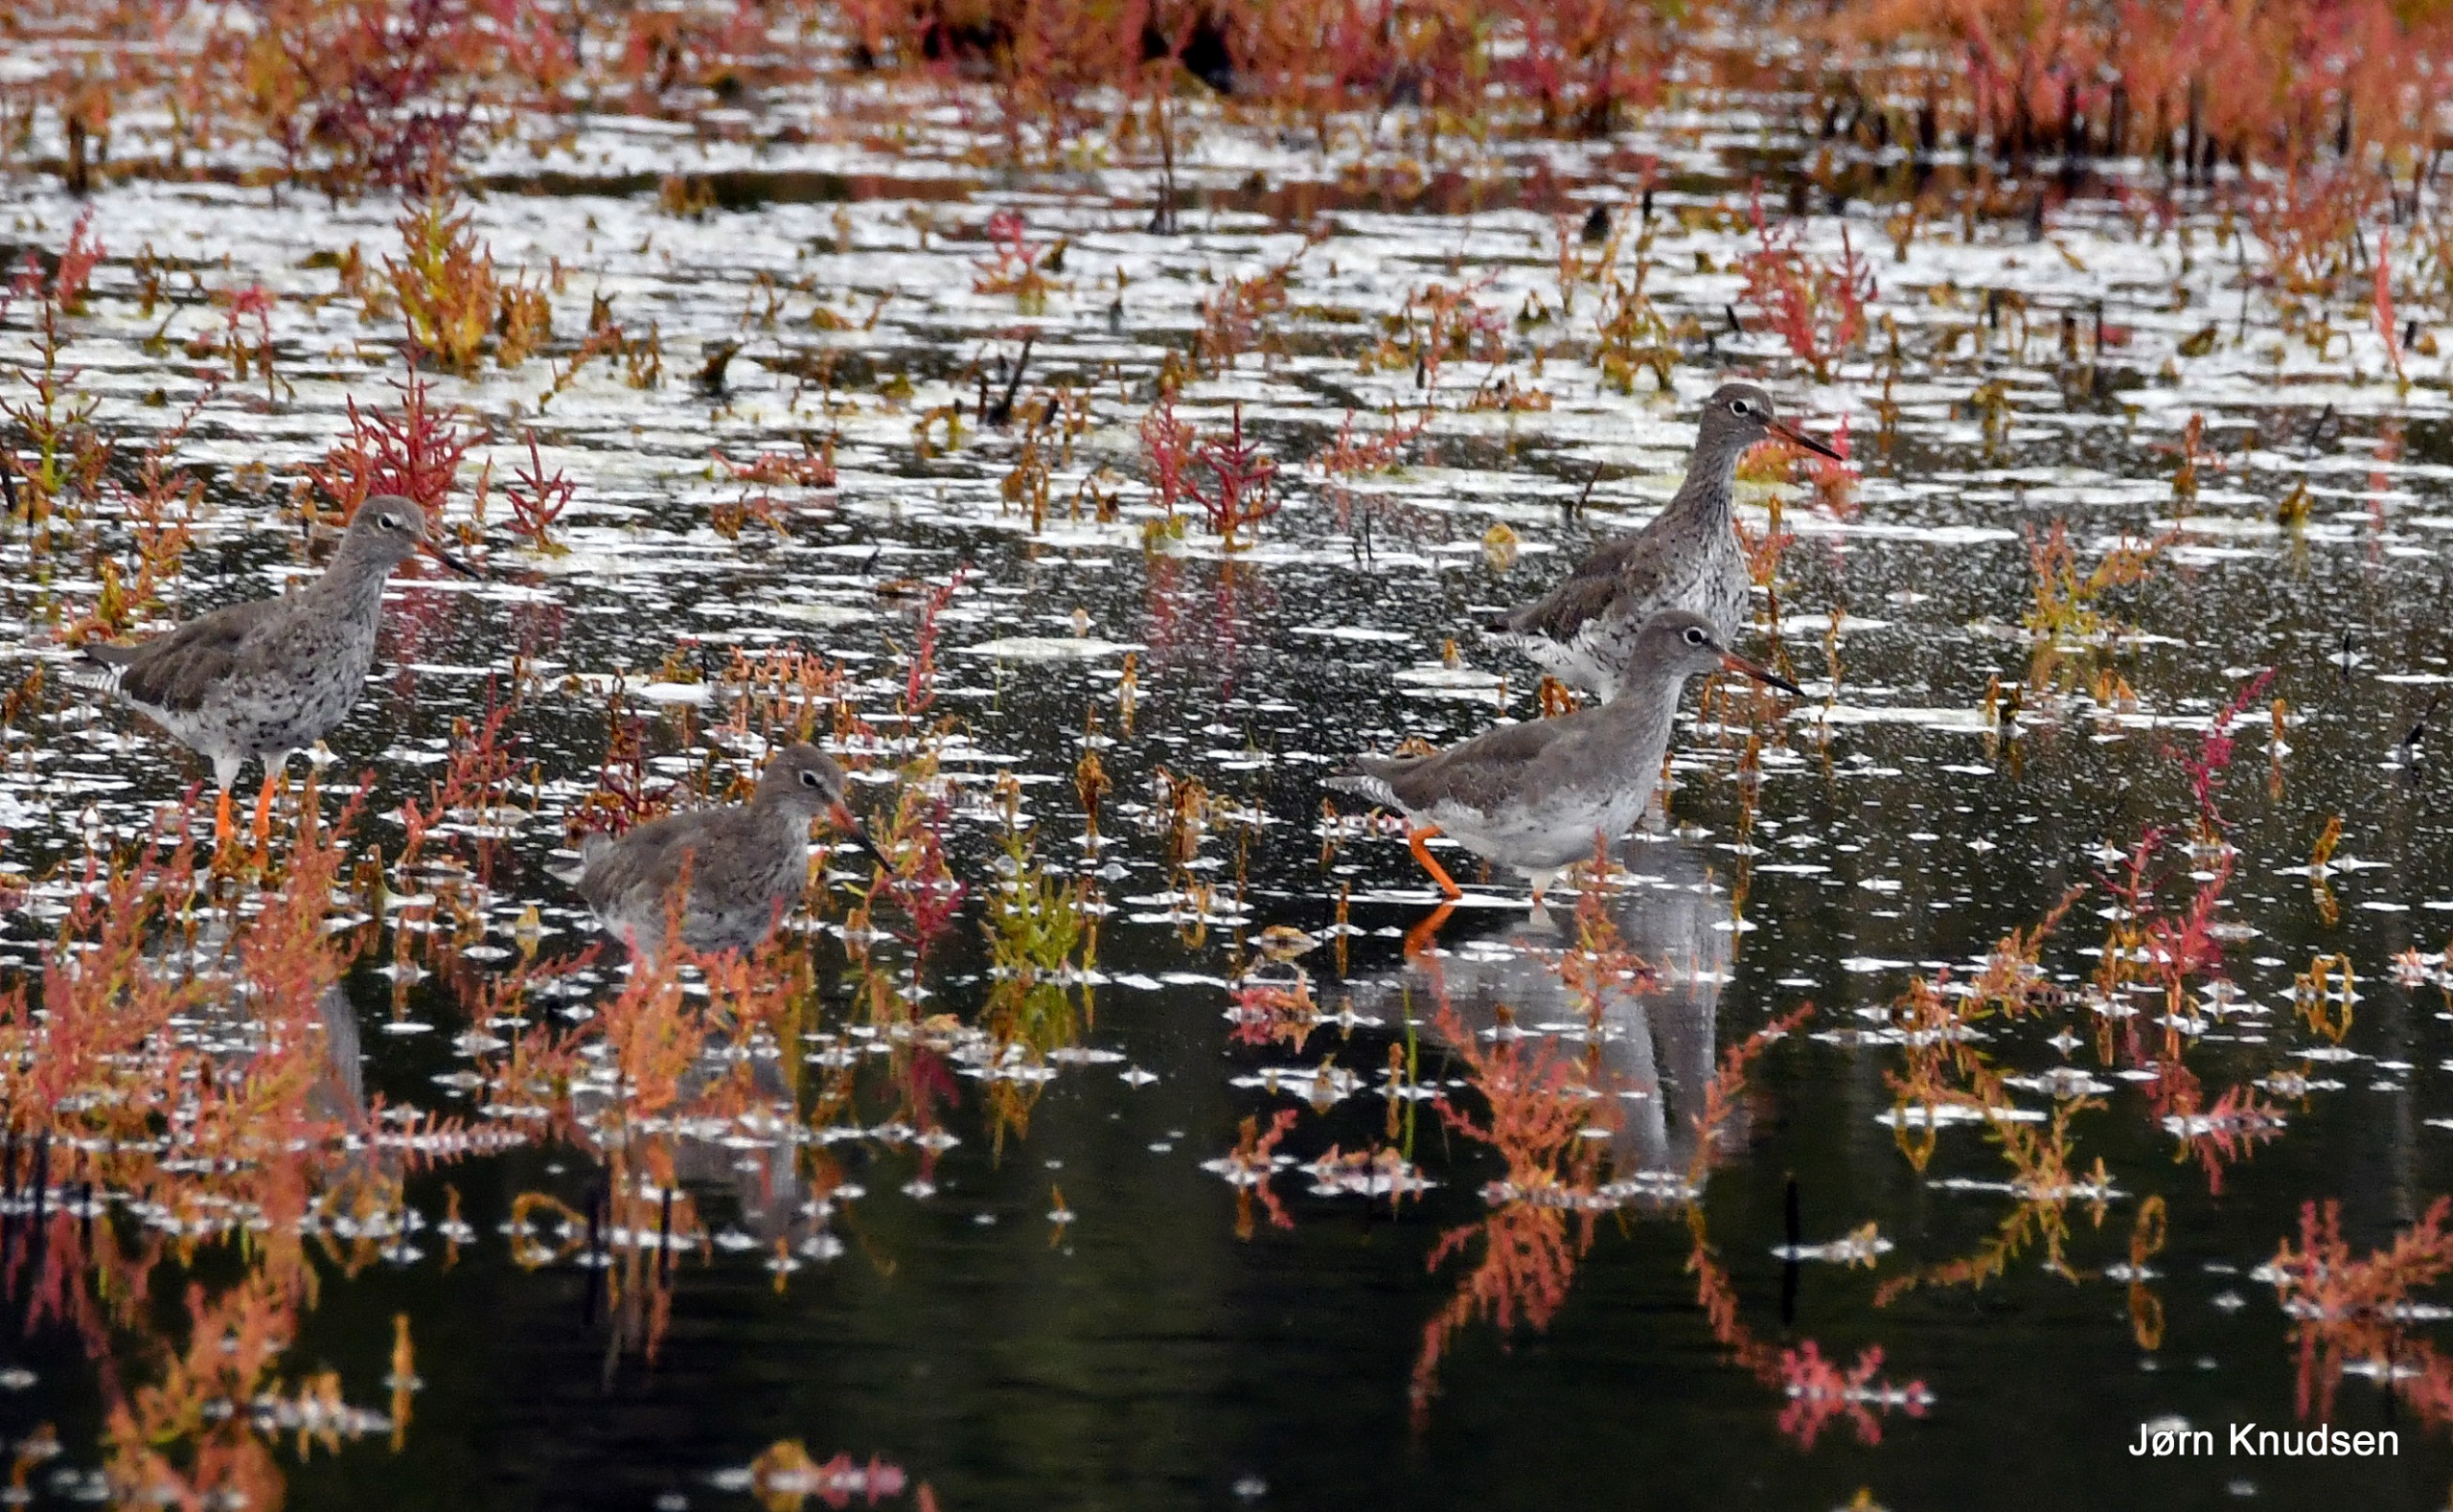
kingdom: Animalia
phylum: Chordata
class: Aves
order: Charadriiformes
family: Scolopacidae
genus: Tringa
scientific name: Tringa totanus
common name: Rødben
